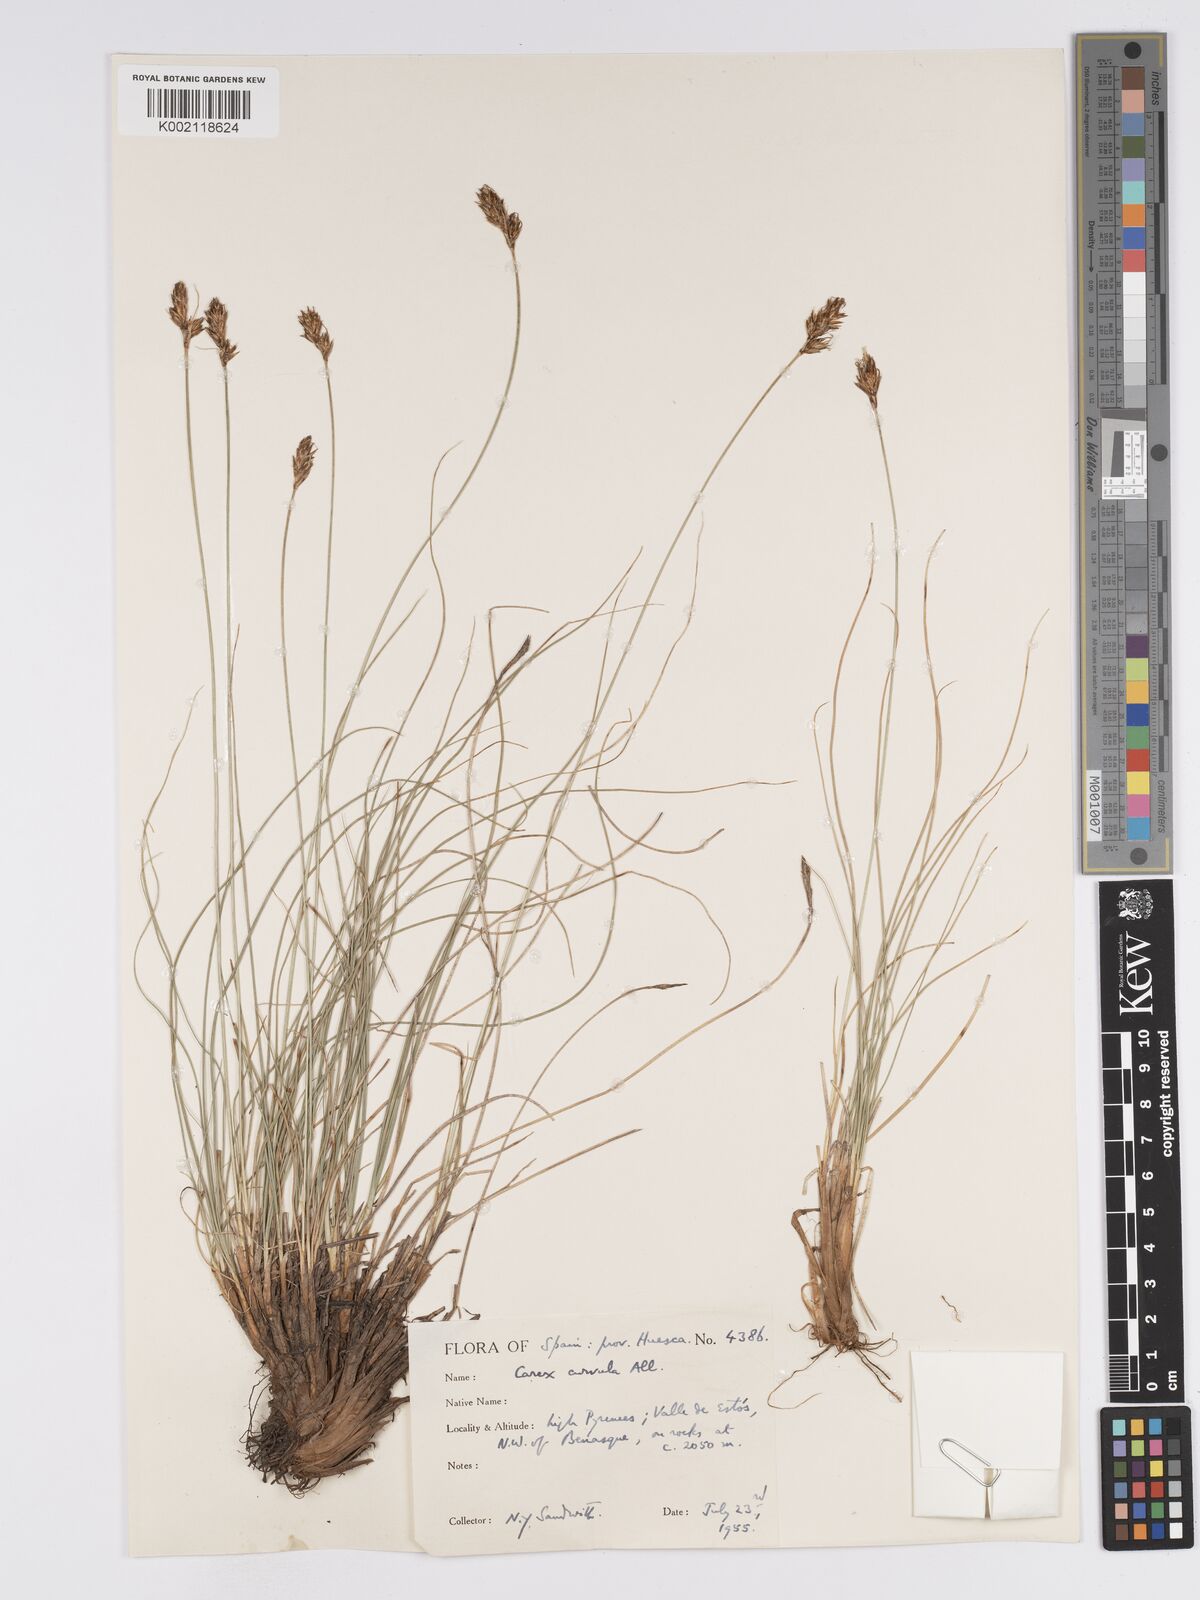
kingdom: Plantae
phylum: Tracheophyta
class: Liliopsida
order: Poales
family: Cyperaceae
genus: Carex
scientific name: Carex curvula
